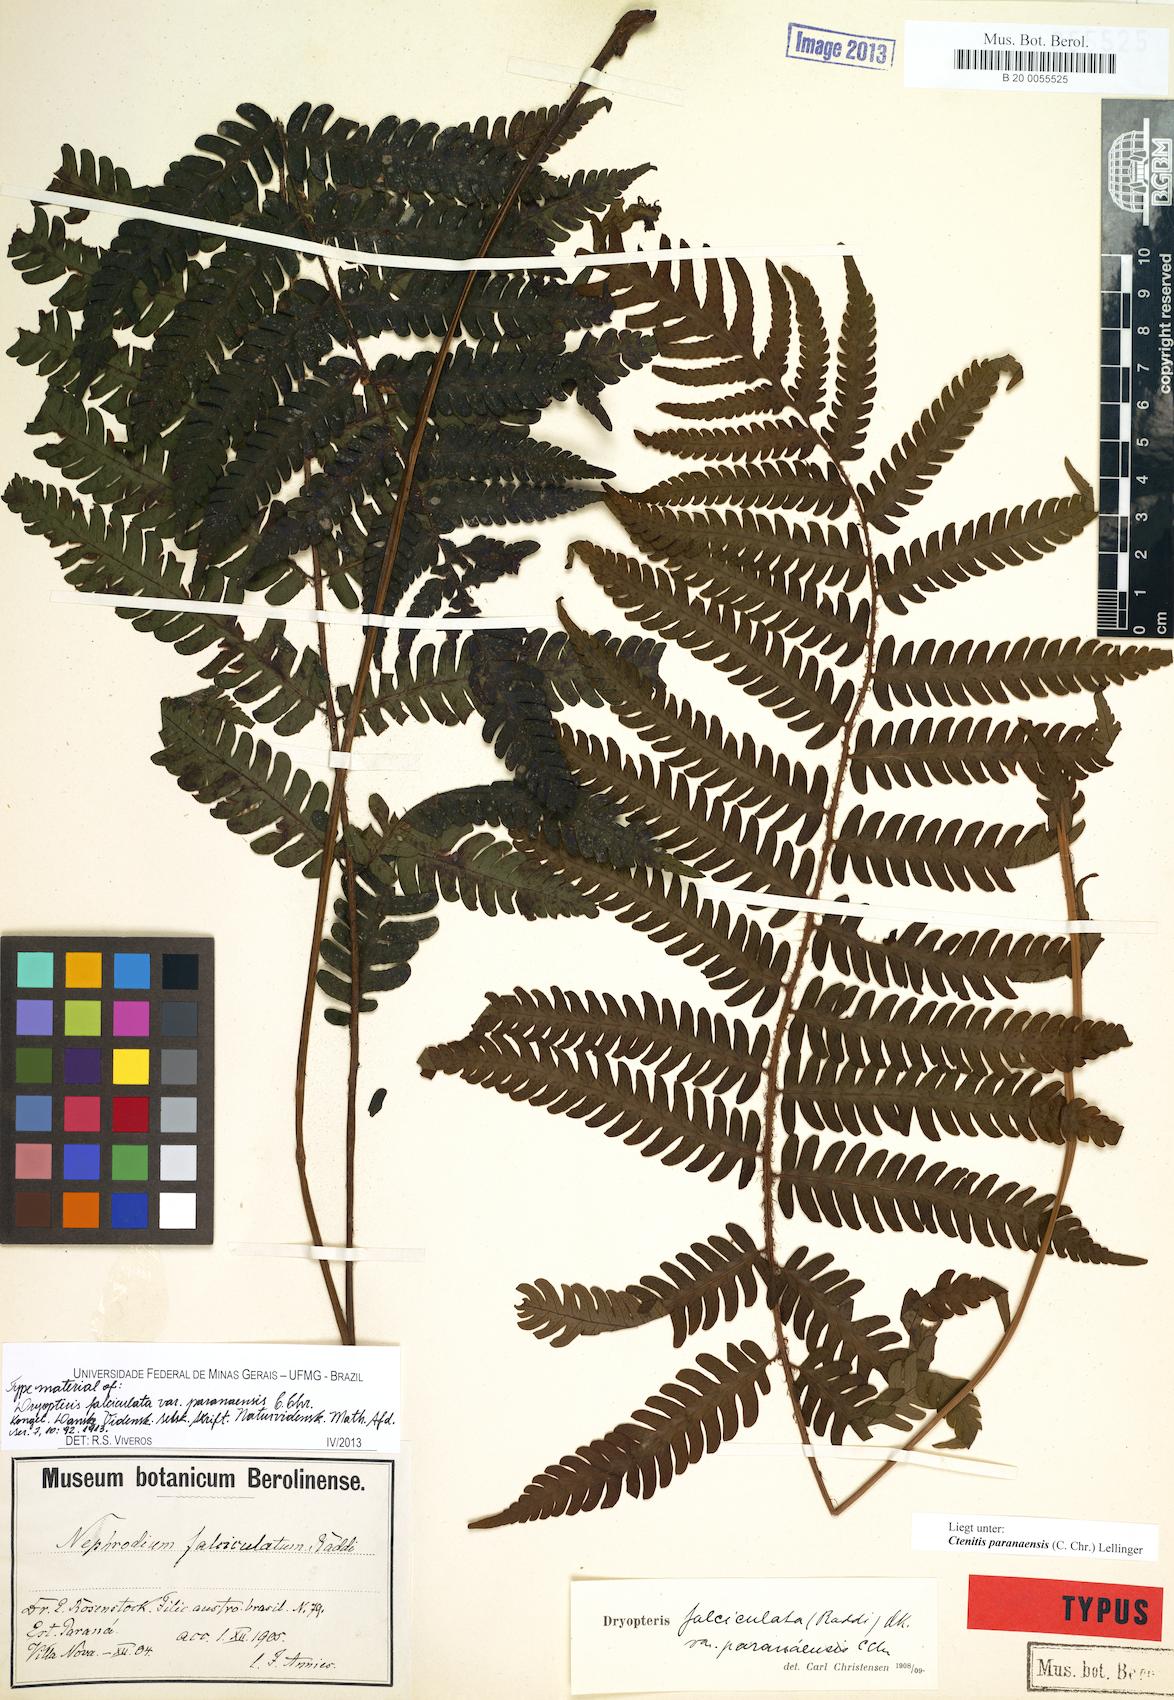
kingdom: Plantae
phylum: Tracheophyta
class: Polypodiopsida
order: Polypodiales
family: Dryopteridaceae
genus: Ctenitis
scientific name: Ctenitis paranaensis
